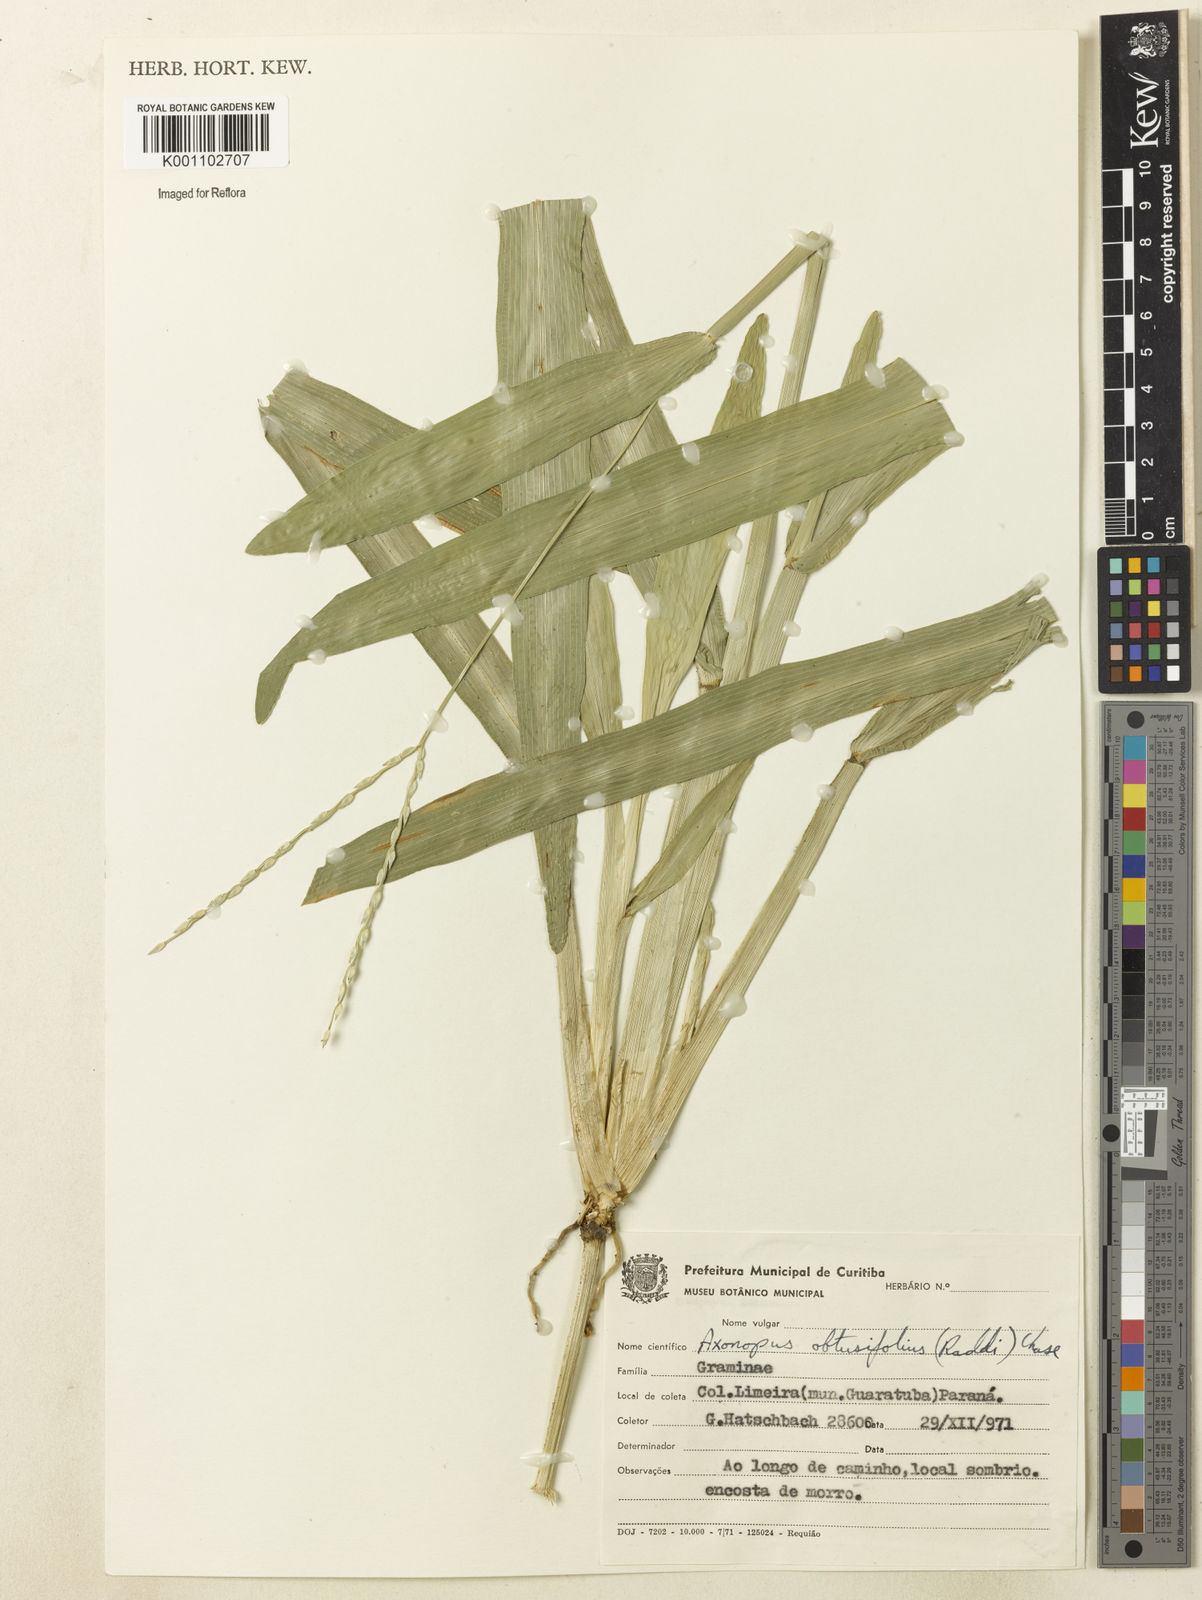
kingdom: Plantae
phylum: Tracheophyta
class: Liliopsida
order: Poales
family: Poaceae
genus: Axonopus
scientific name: Axonopus furcatus
